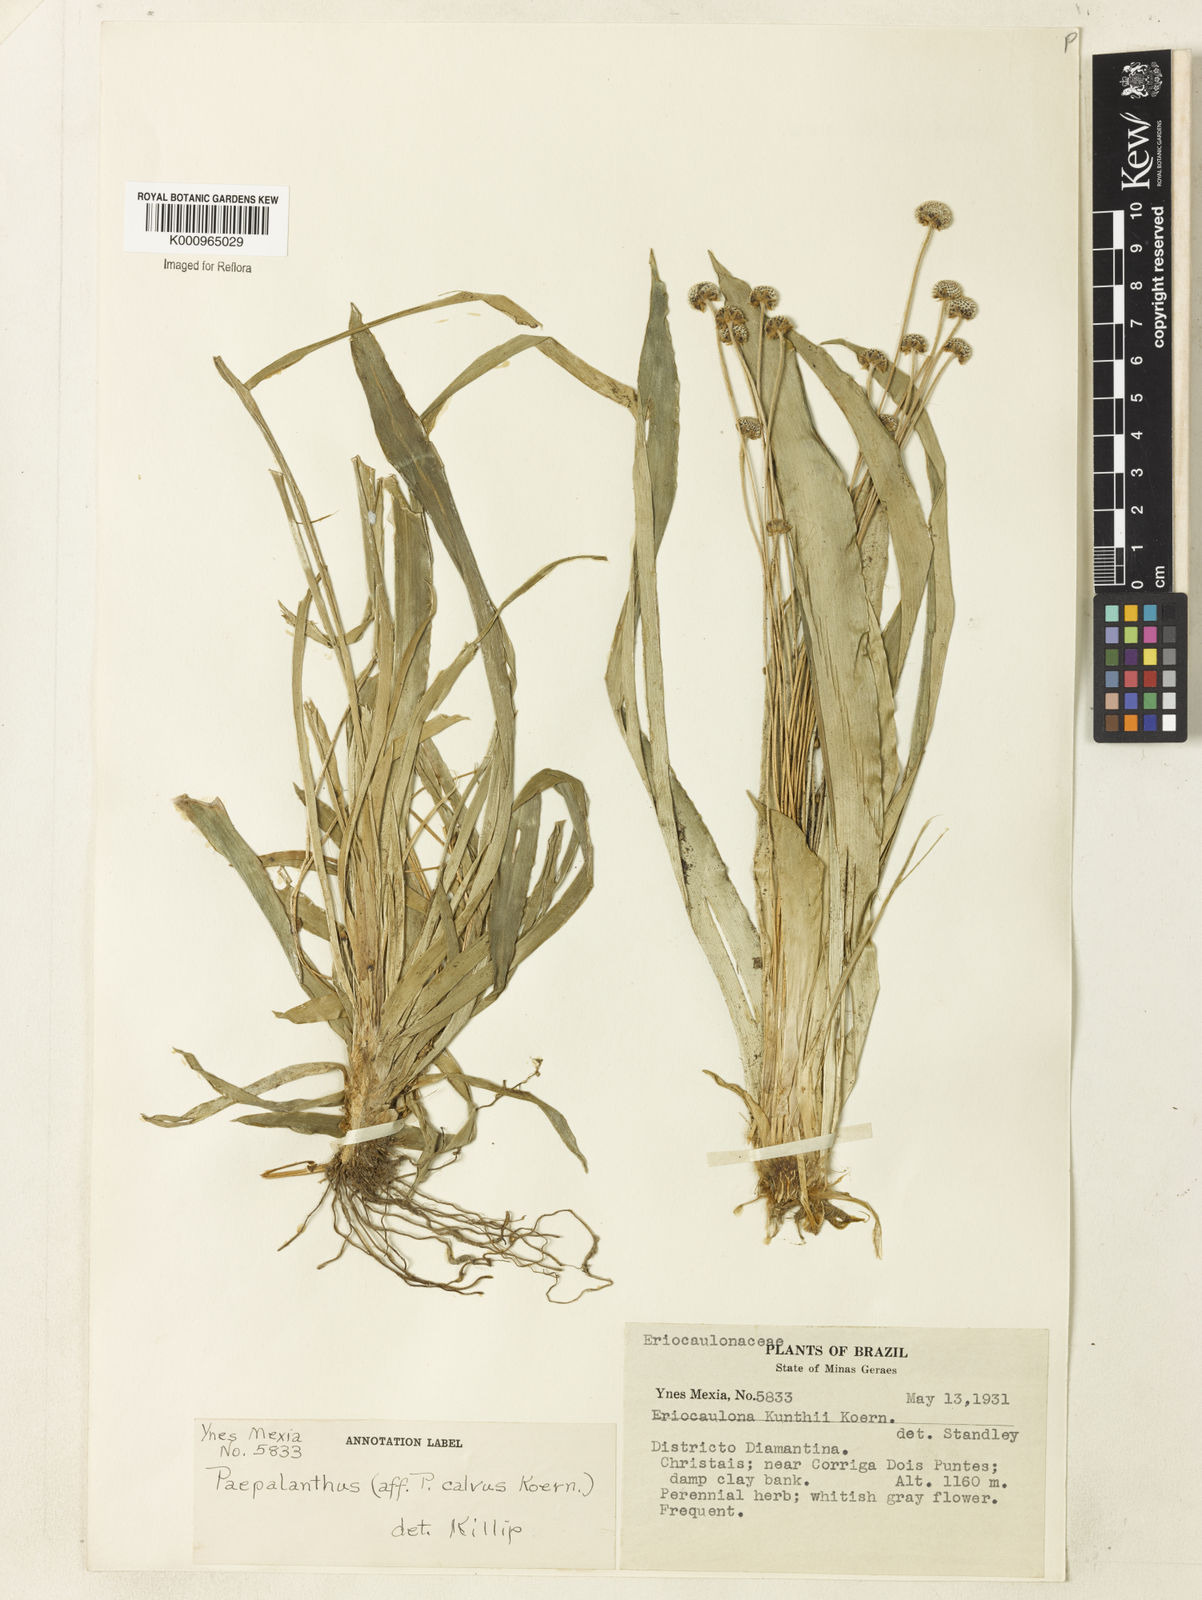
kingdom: Plantae
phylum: Tracheophyta
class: Liliopsida
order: Poales
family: Eriocaulaceae
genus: Paepalanthus
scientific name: Paepalanthus
